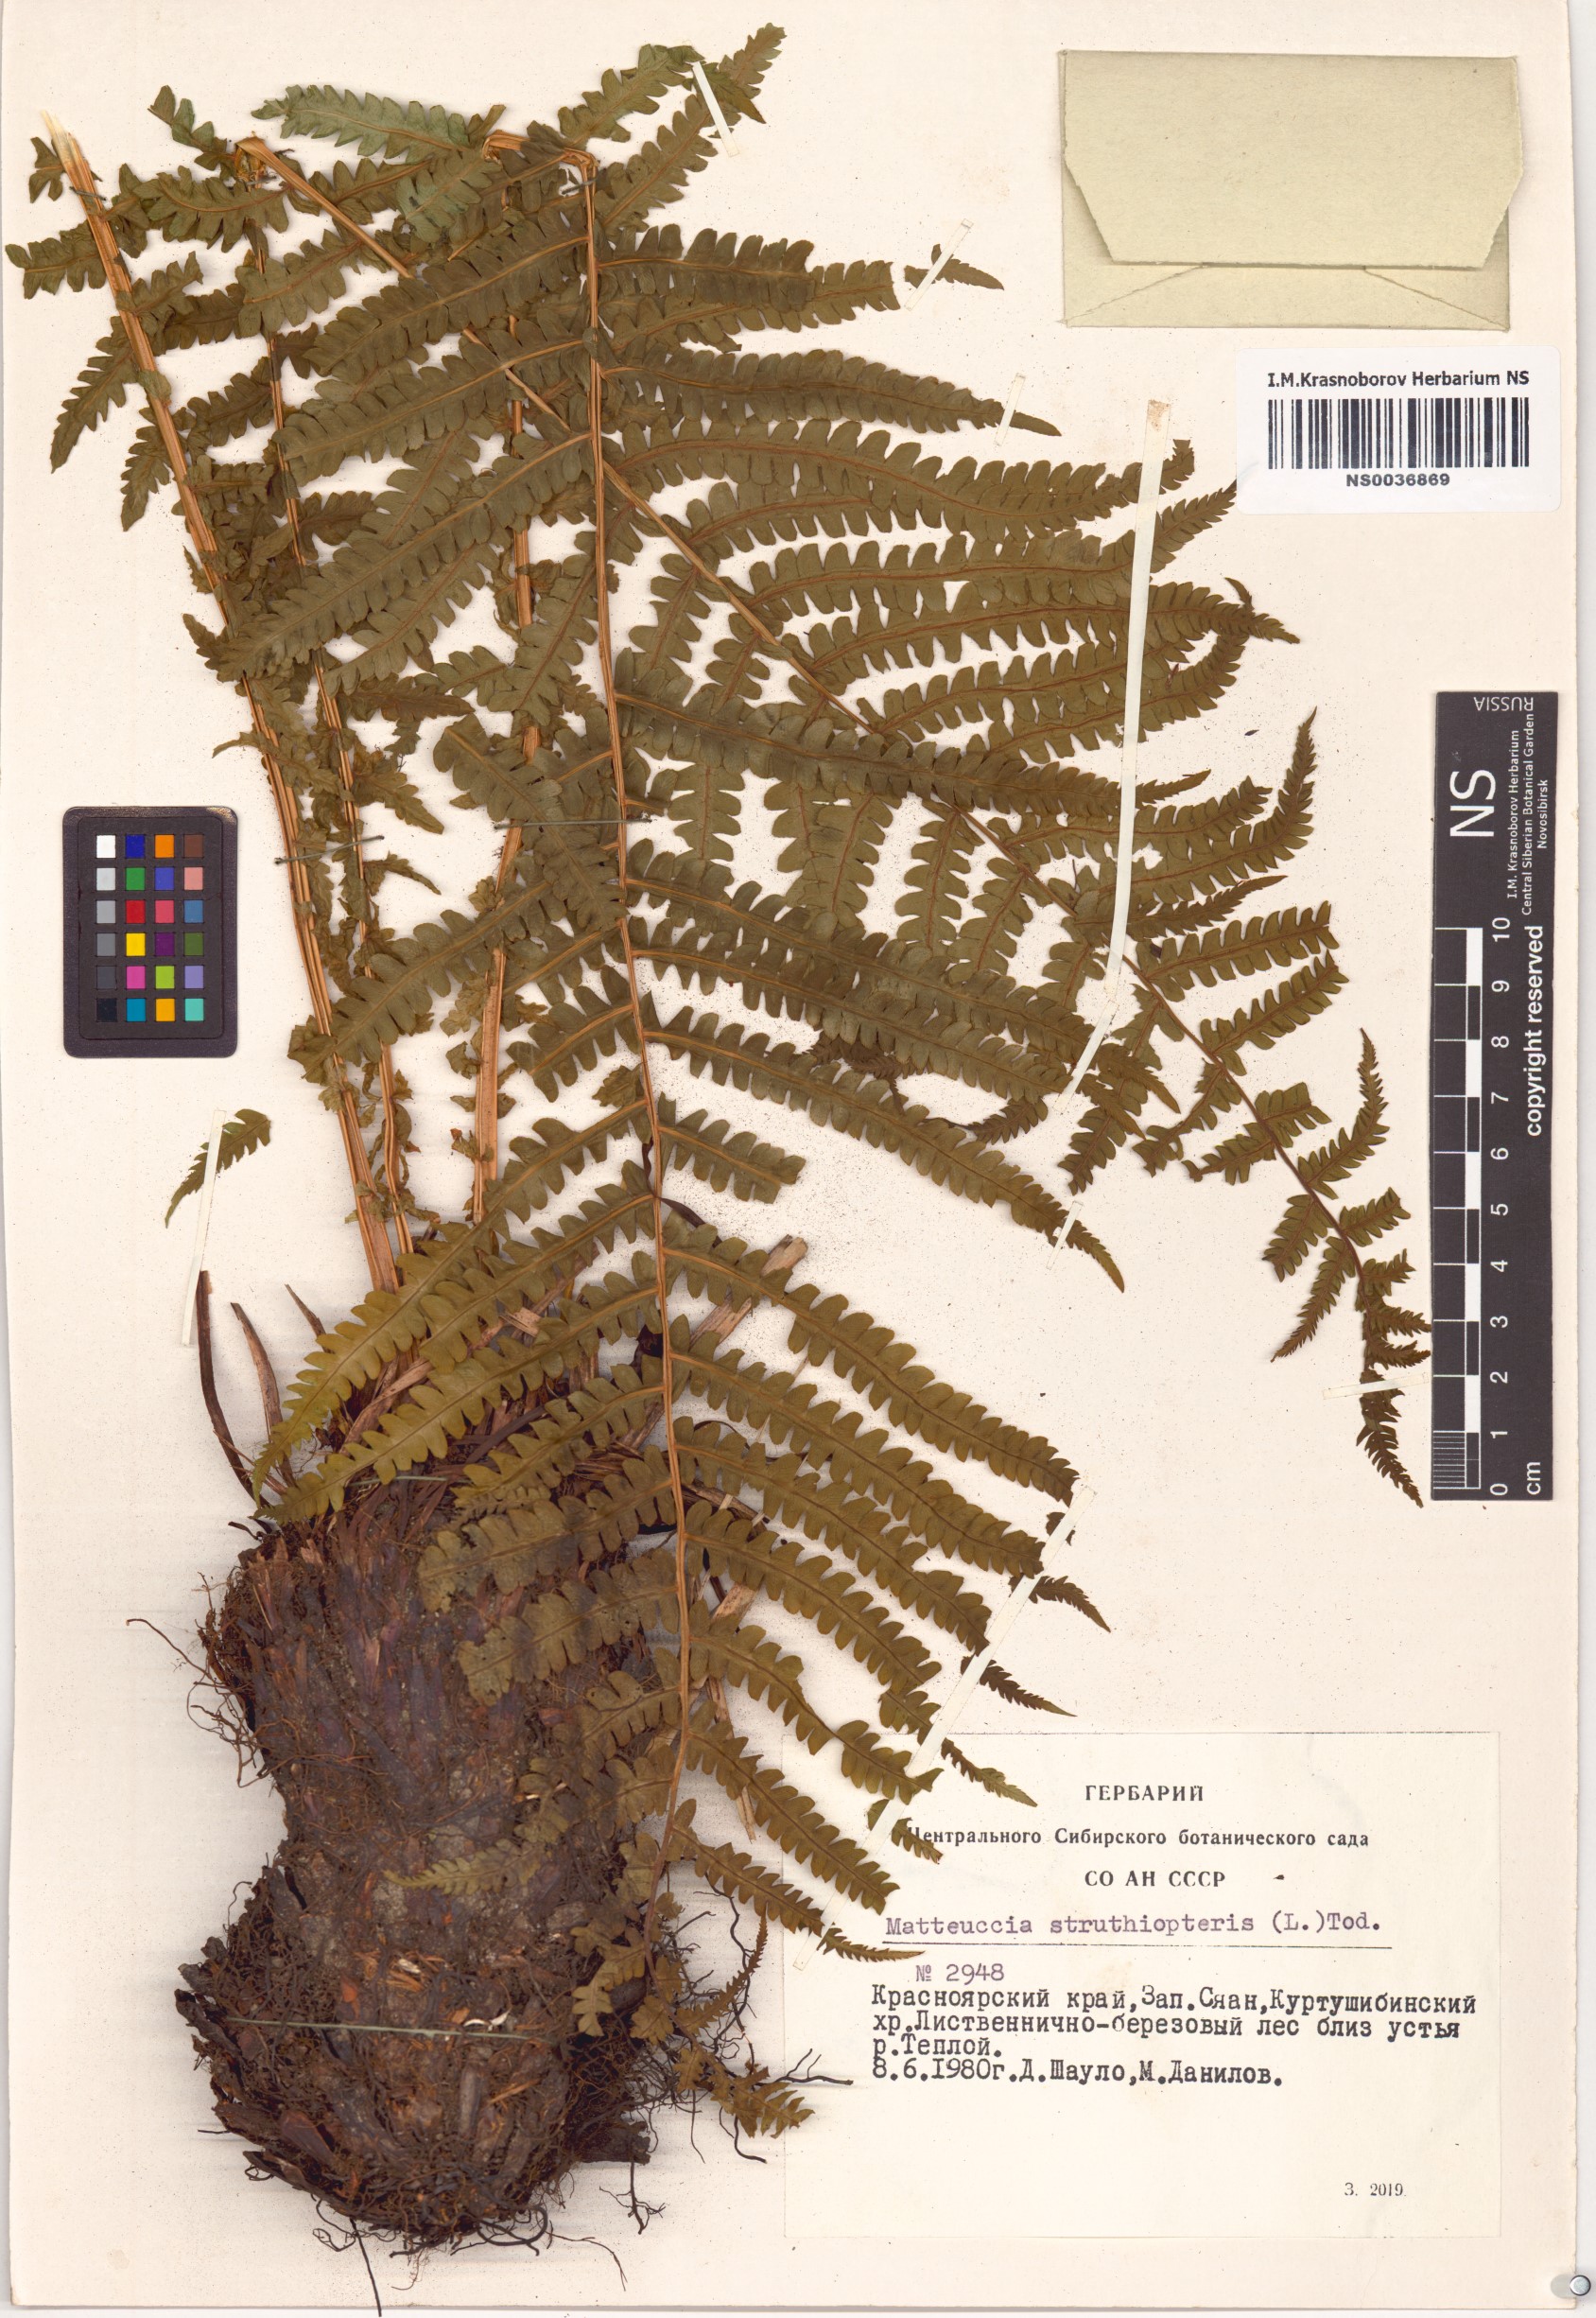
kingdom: Plantae
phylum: Tracheophyta
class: Polypodiopsida
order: Polypodiales
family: Onocleaceae
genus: Matteuccia
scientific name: Matteuccia struthiopteris
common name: Ostrich fern
